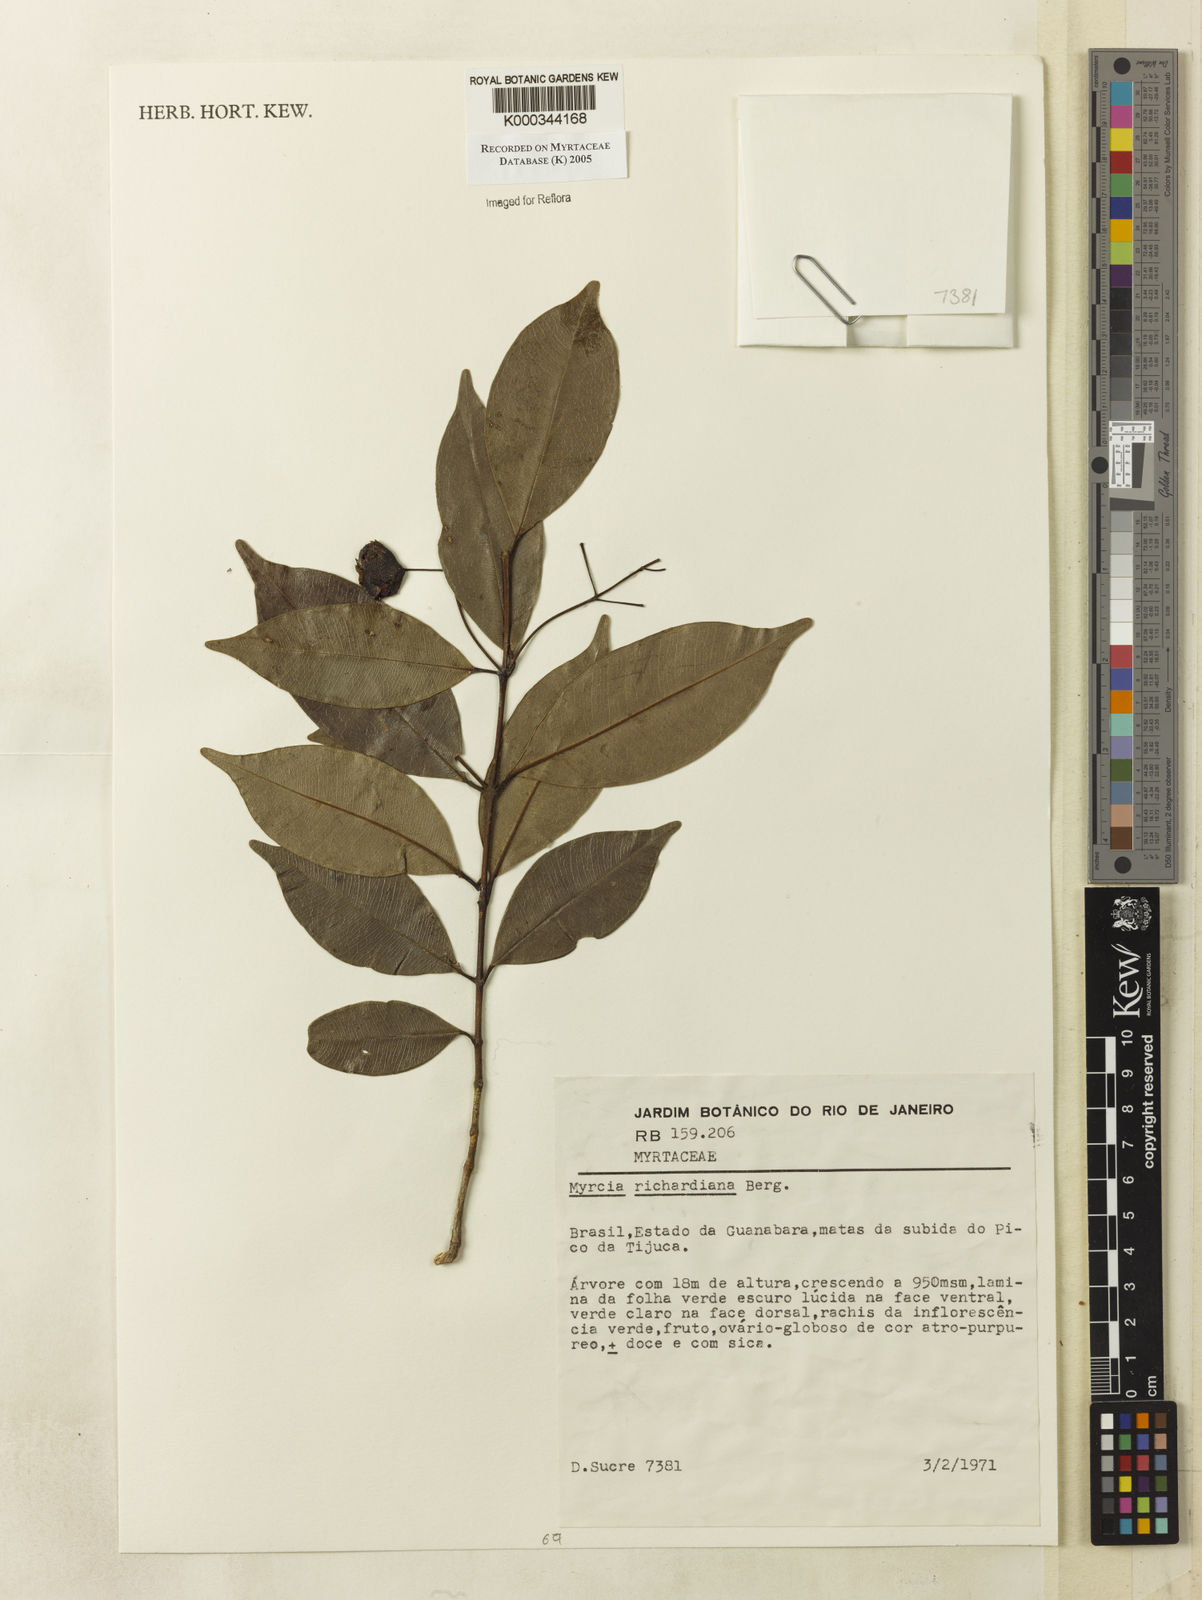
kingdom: Plantae
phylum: Tracheophyta
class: Magnoliopsida
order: Myrtales
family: Myrtaceae
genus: Myrcia
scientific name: Myrcia richardiana
